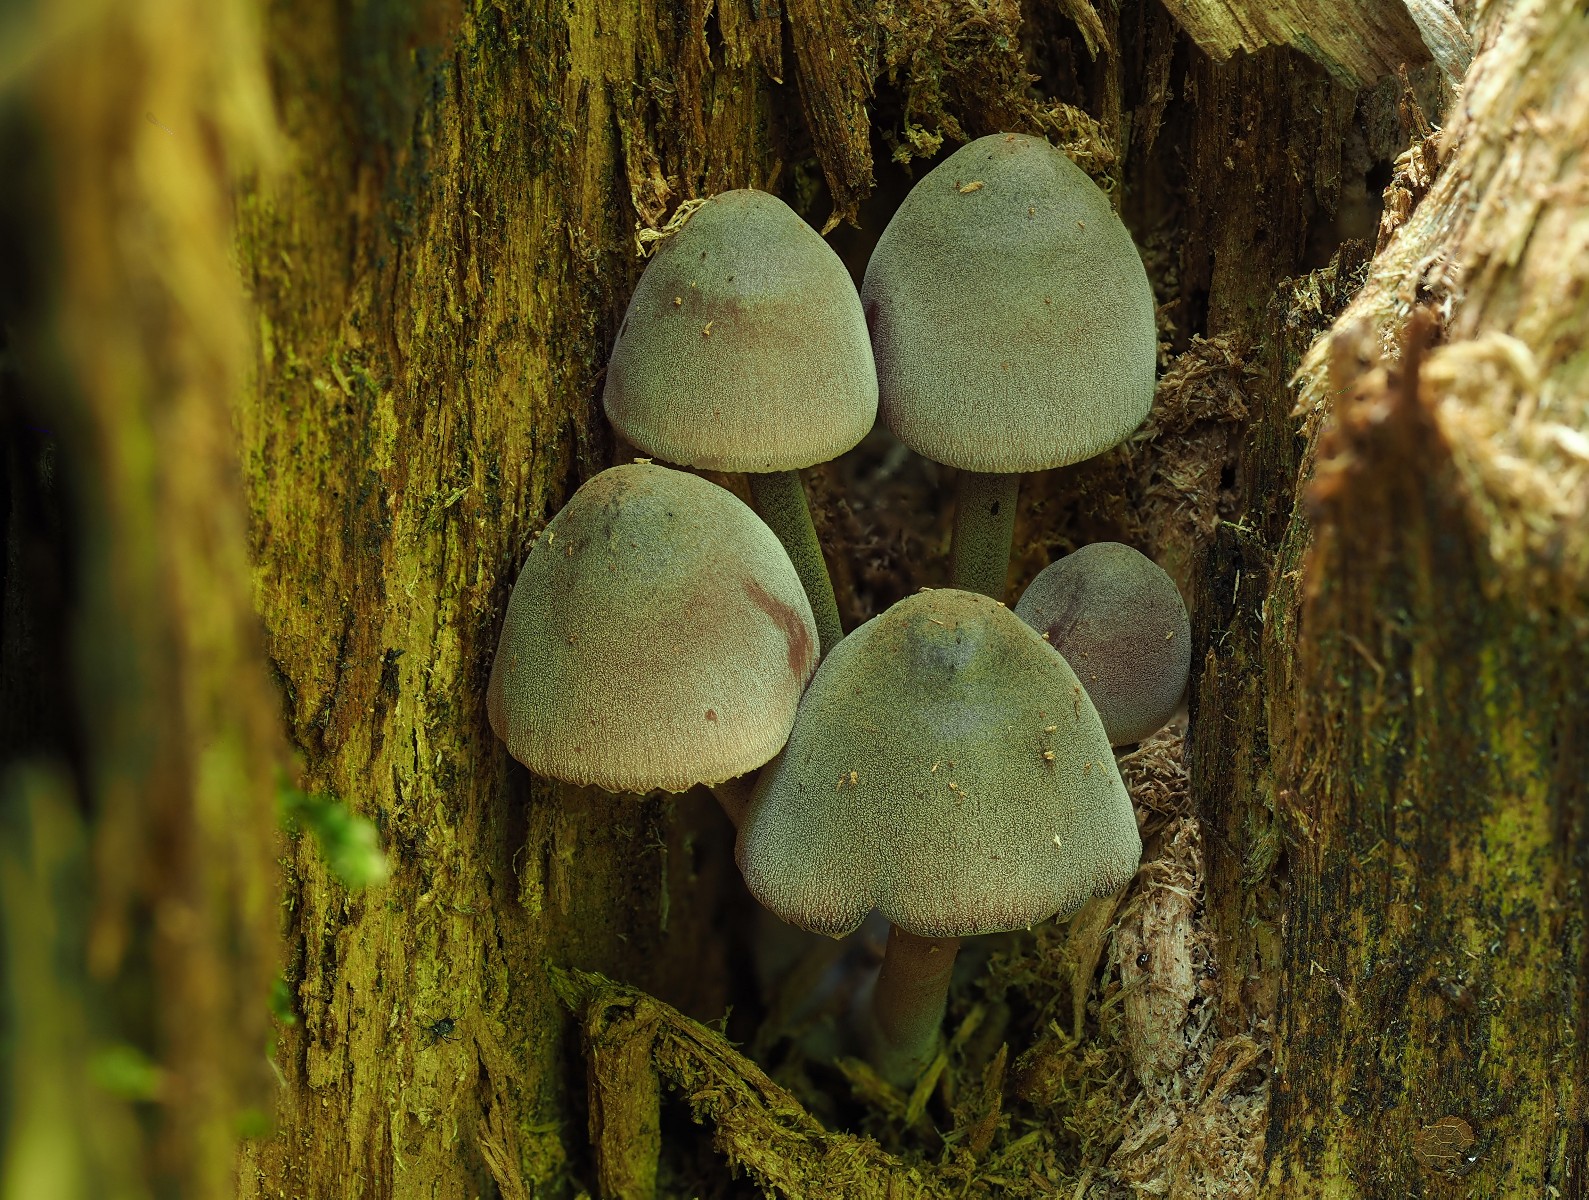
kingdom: Fungi
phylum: Basidiomycota
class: Agaricomycetes
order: Agaricales
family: Mycenaceae
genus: Mycena
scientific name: Mycena haematopus
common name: blødende huesvamp
